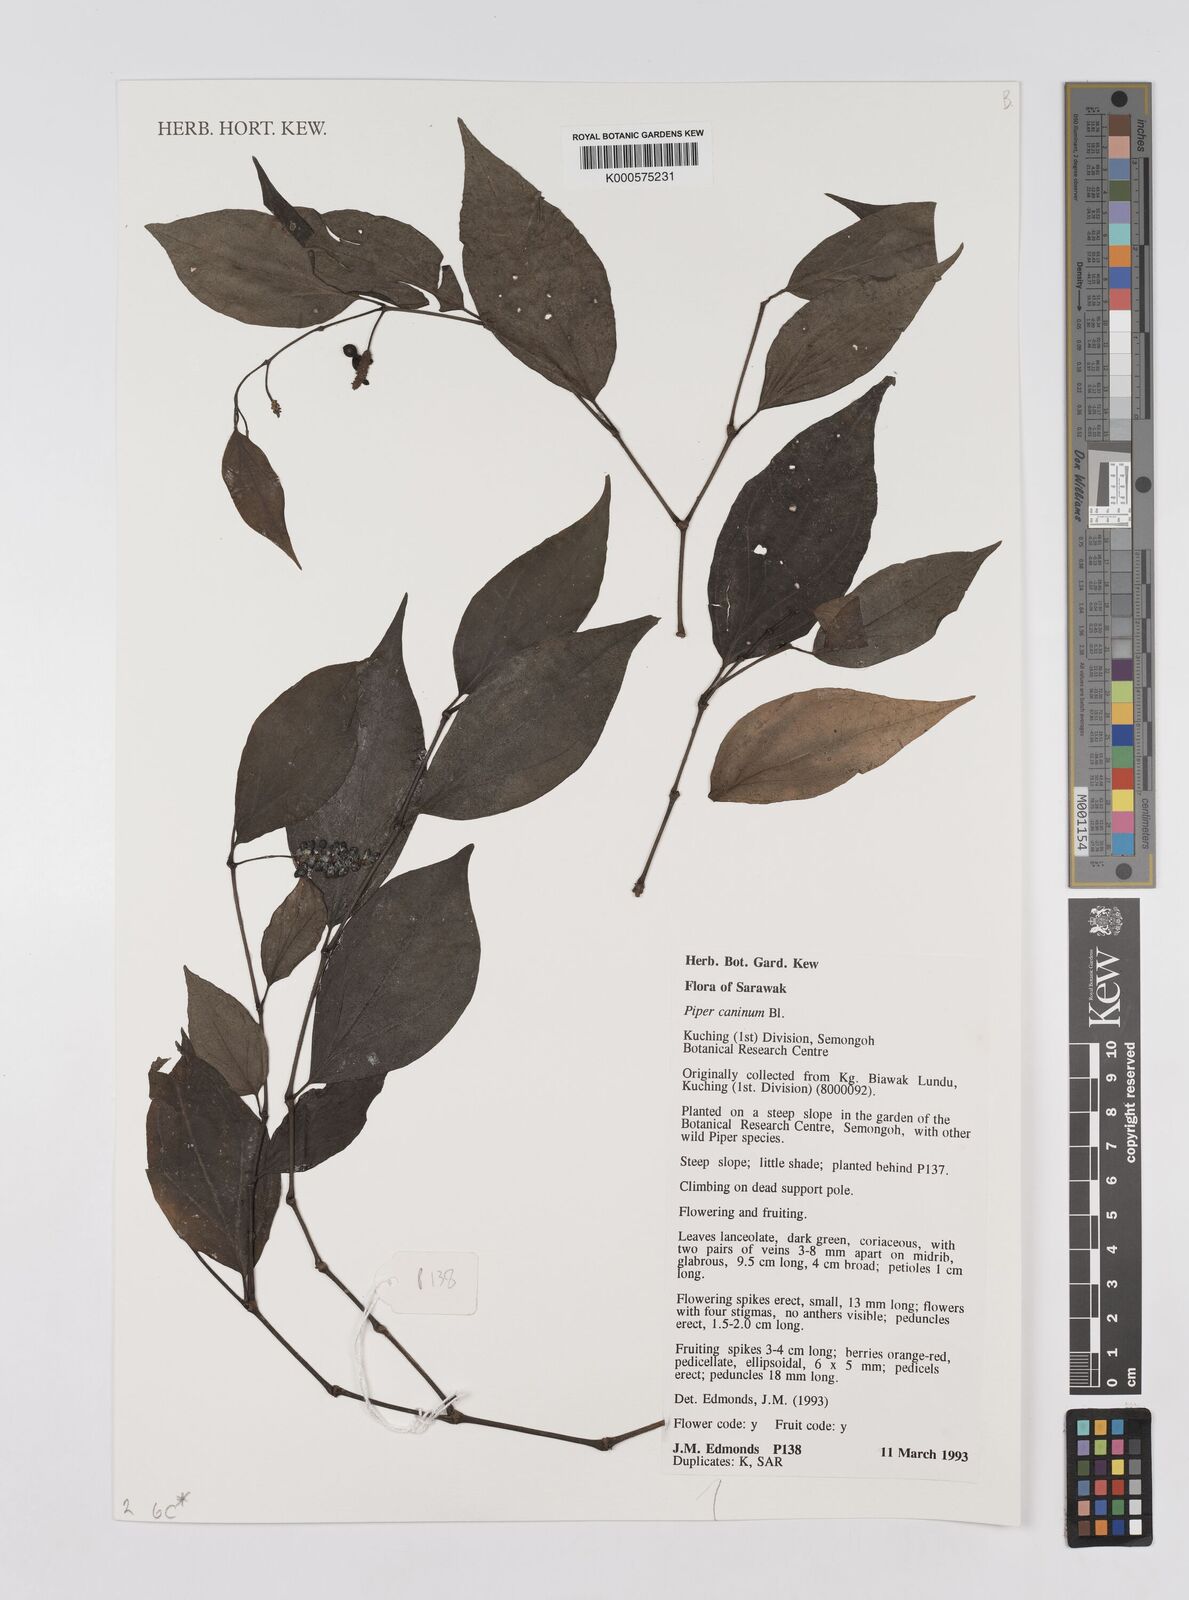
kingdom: Plantae
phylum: Tracheophyta
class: Magnoliopsida
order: Piperales
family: Piperaceae
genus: Piper
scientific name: Piper lanatum
